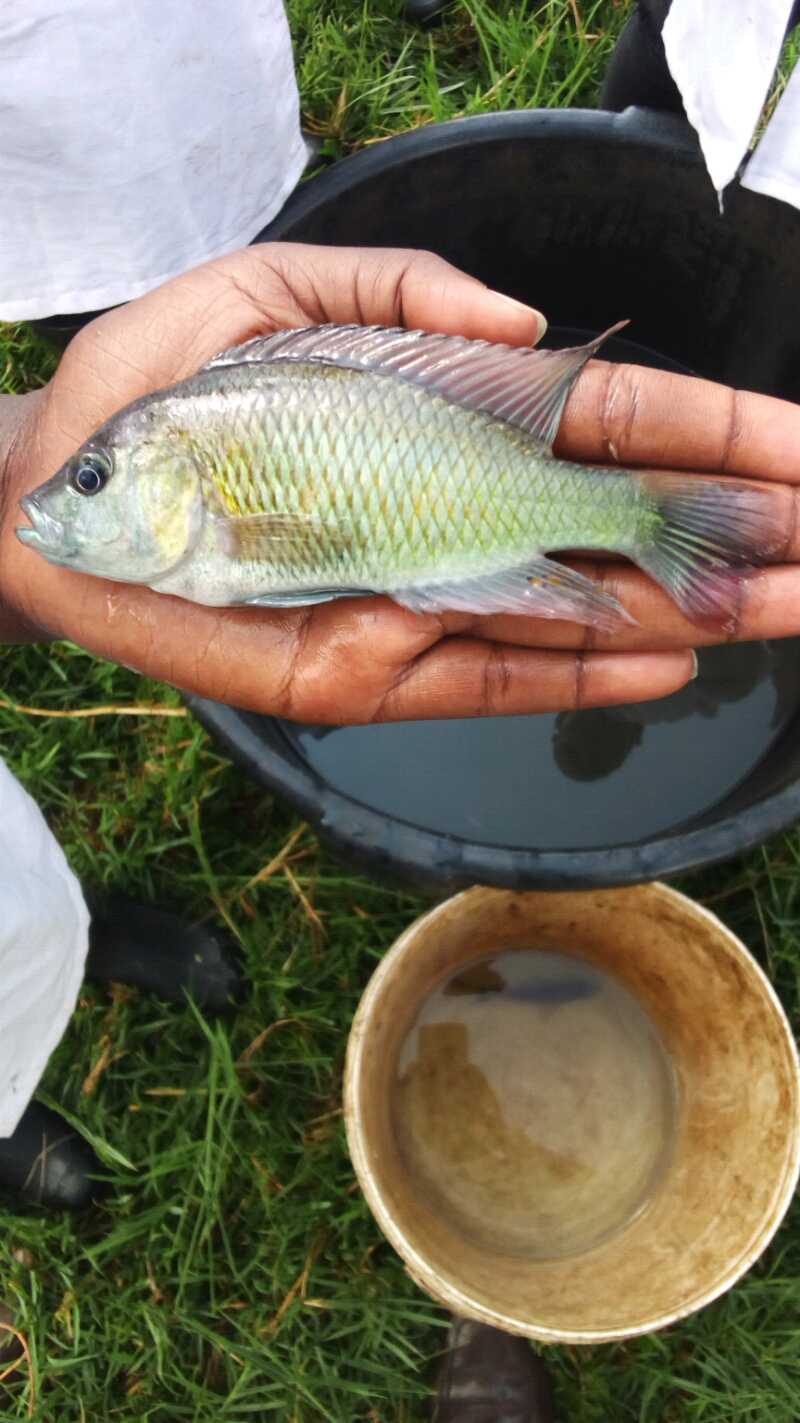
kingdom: Animalia
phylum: Chordata
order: Perciformes
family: Cichlidae
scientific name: Cichlidae
